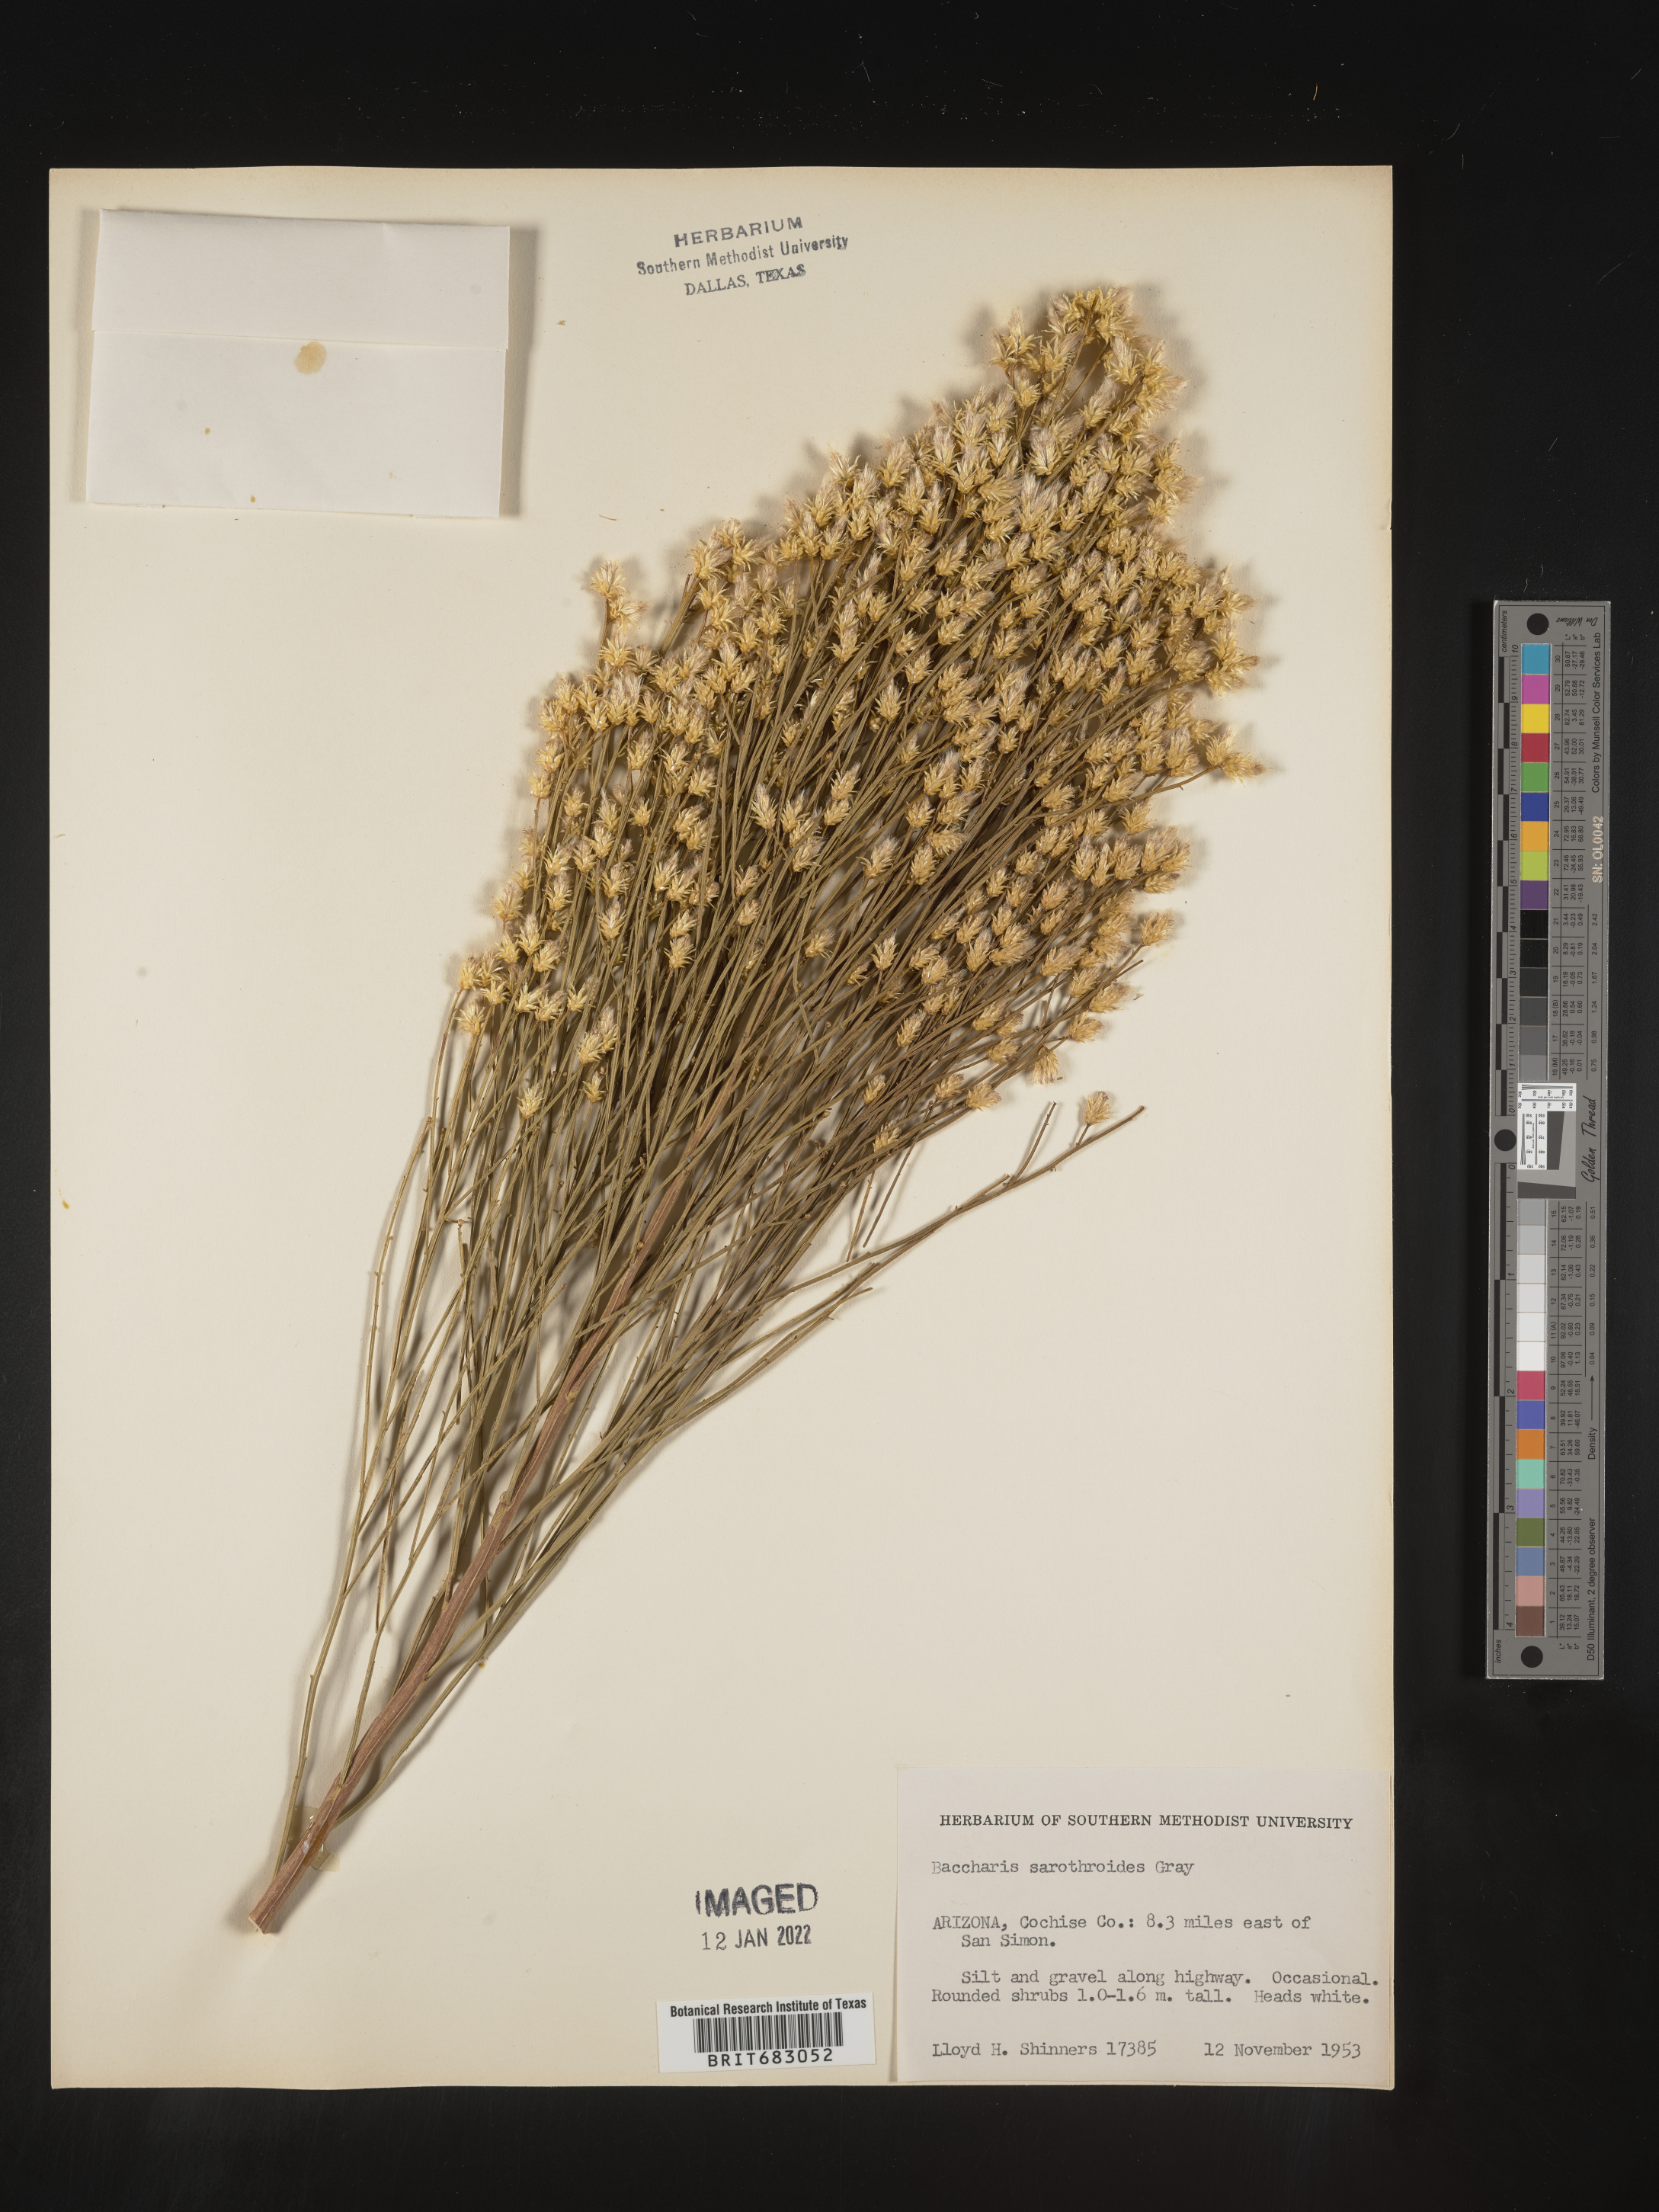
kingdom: Plantae
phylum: Tracheophyta
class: Magnoliopsida
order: Asterales
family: Asteraceae
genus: Baccharis
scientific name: Baccharis sarothroides
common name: Desert-broom
